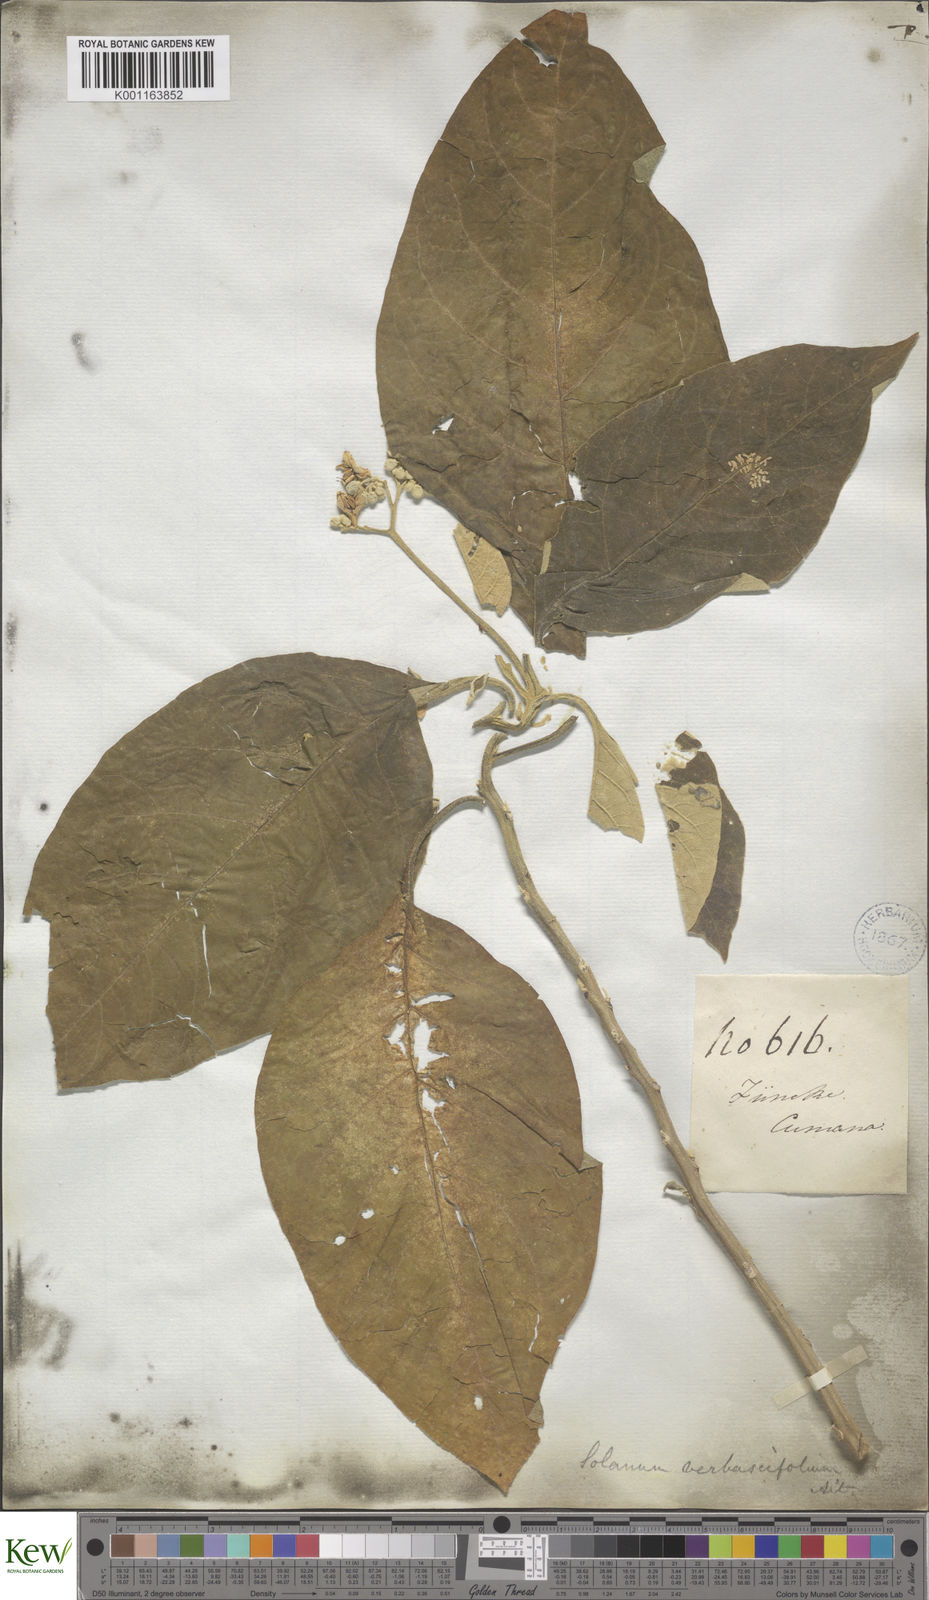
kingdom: Plantae
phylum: Tracheophyta
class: Magnoliopsida
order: Solanales
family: Solanaceae
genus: Solanum
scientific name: Solanum erianthum
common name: Tobacco-tree
